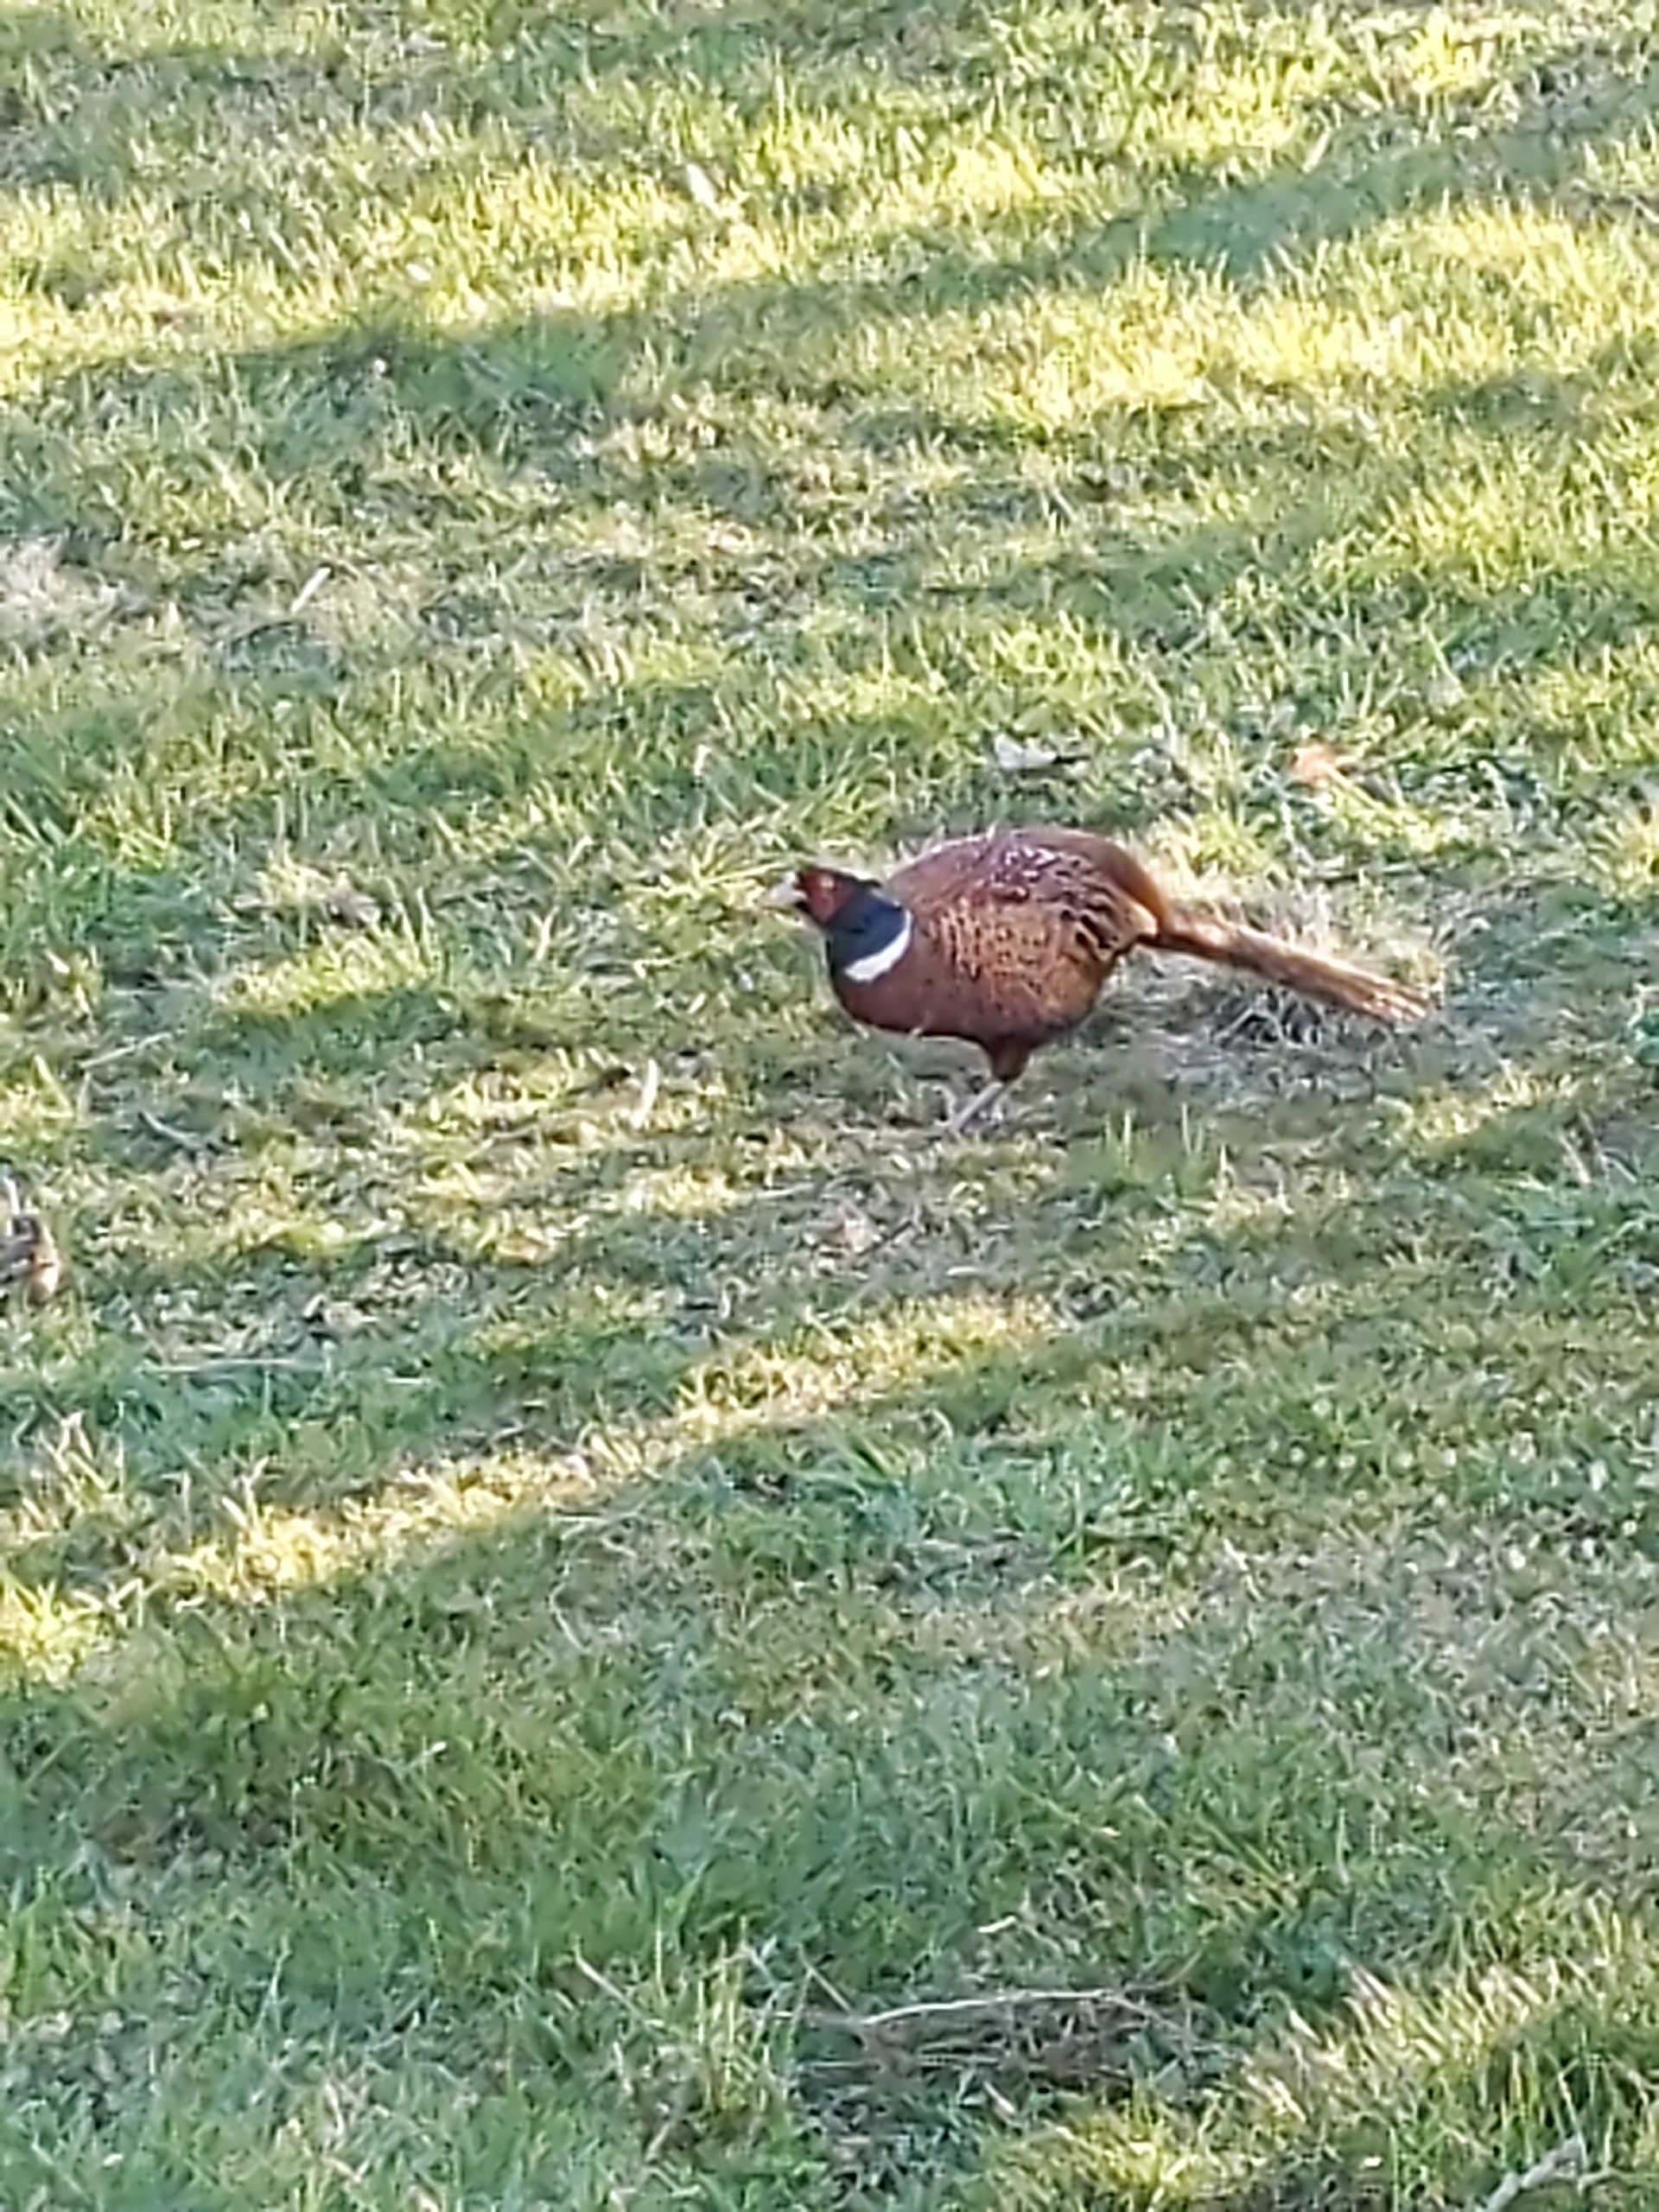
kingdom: Animalia
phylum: Chordata
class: Aves
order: Galliformes
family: Phasianidae
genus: Phasianus
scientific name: Phasianus colchicus
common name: Fasan
